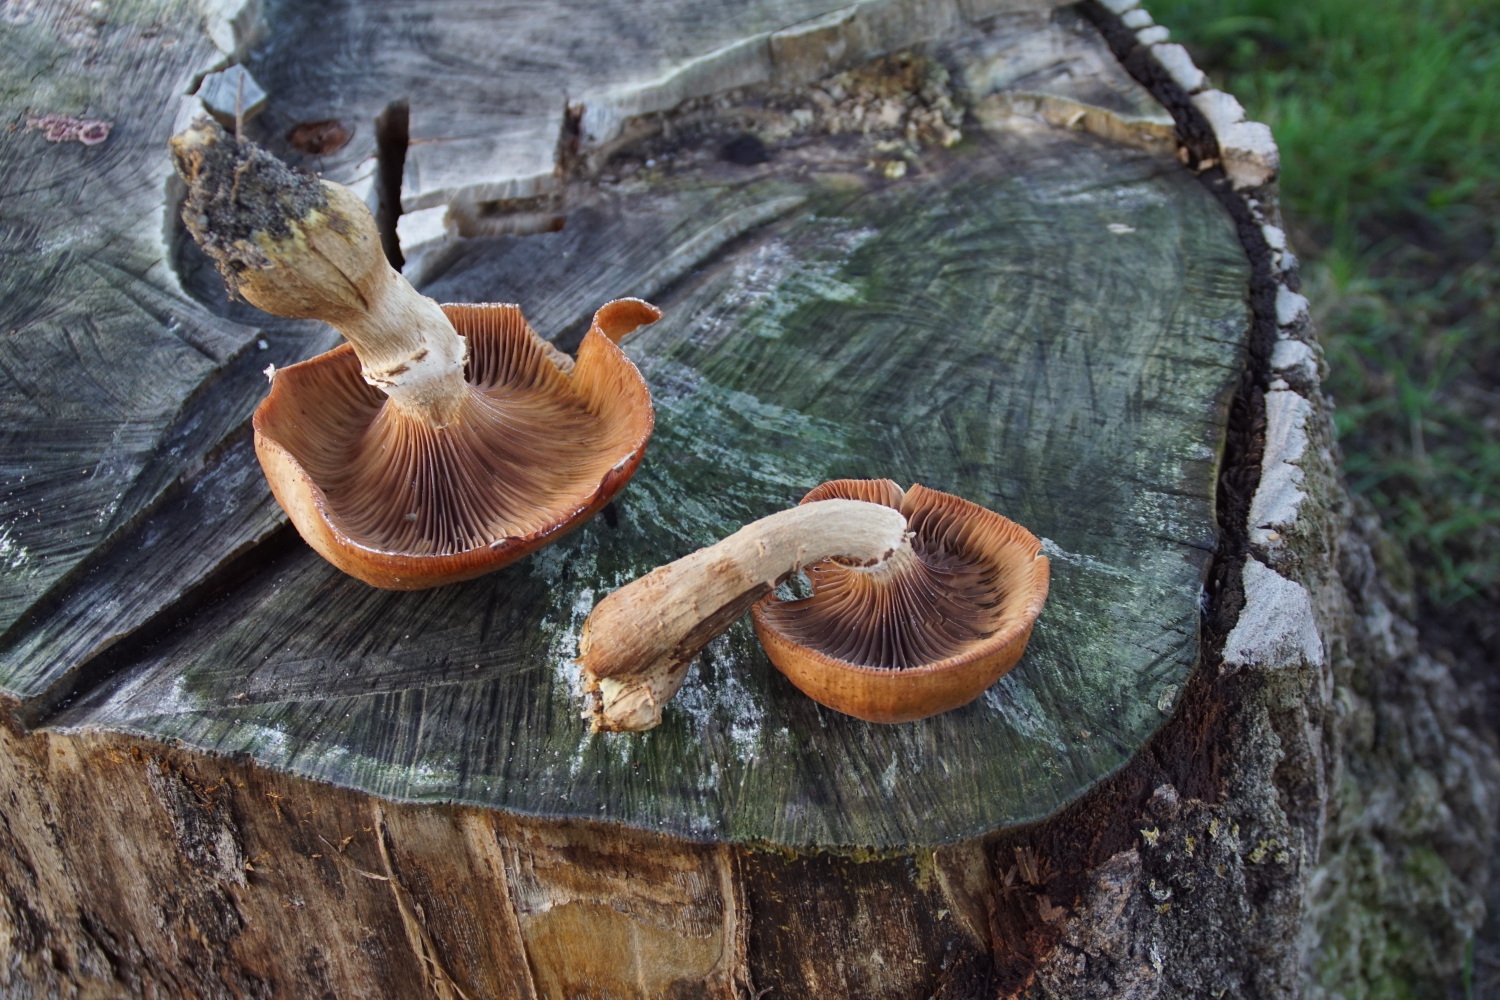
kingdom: Fungi
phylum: Basidiomycota
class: Agaricomycetes
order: Agaricales
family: Physalacriaceae
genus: Armillaria
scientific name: Armillaria lutea
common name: køllestokket honningsvamp
